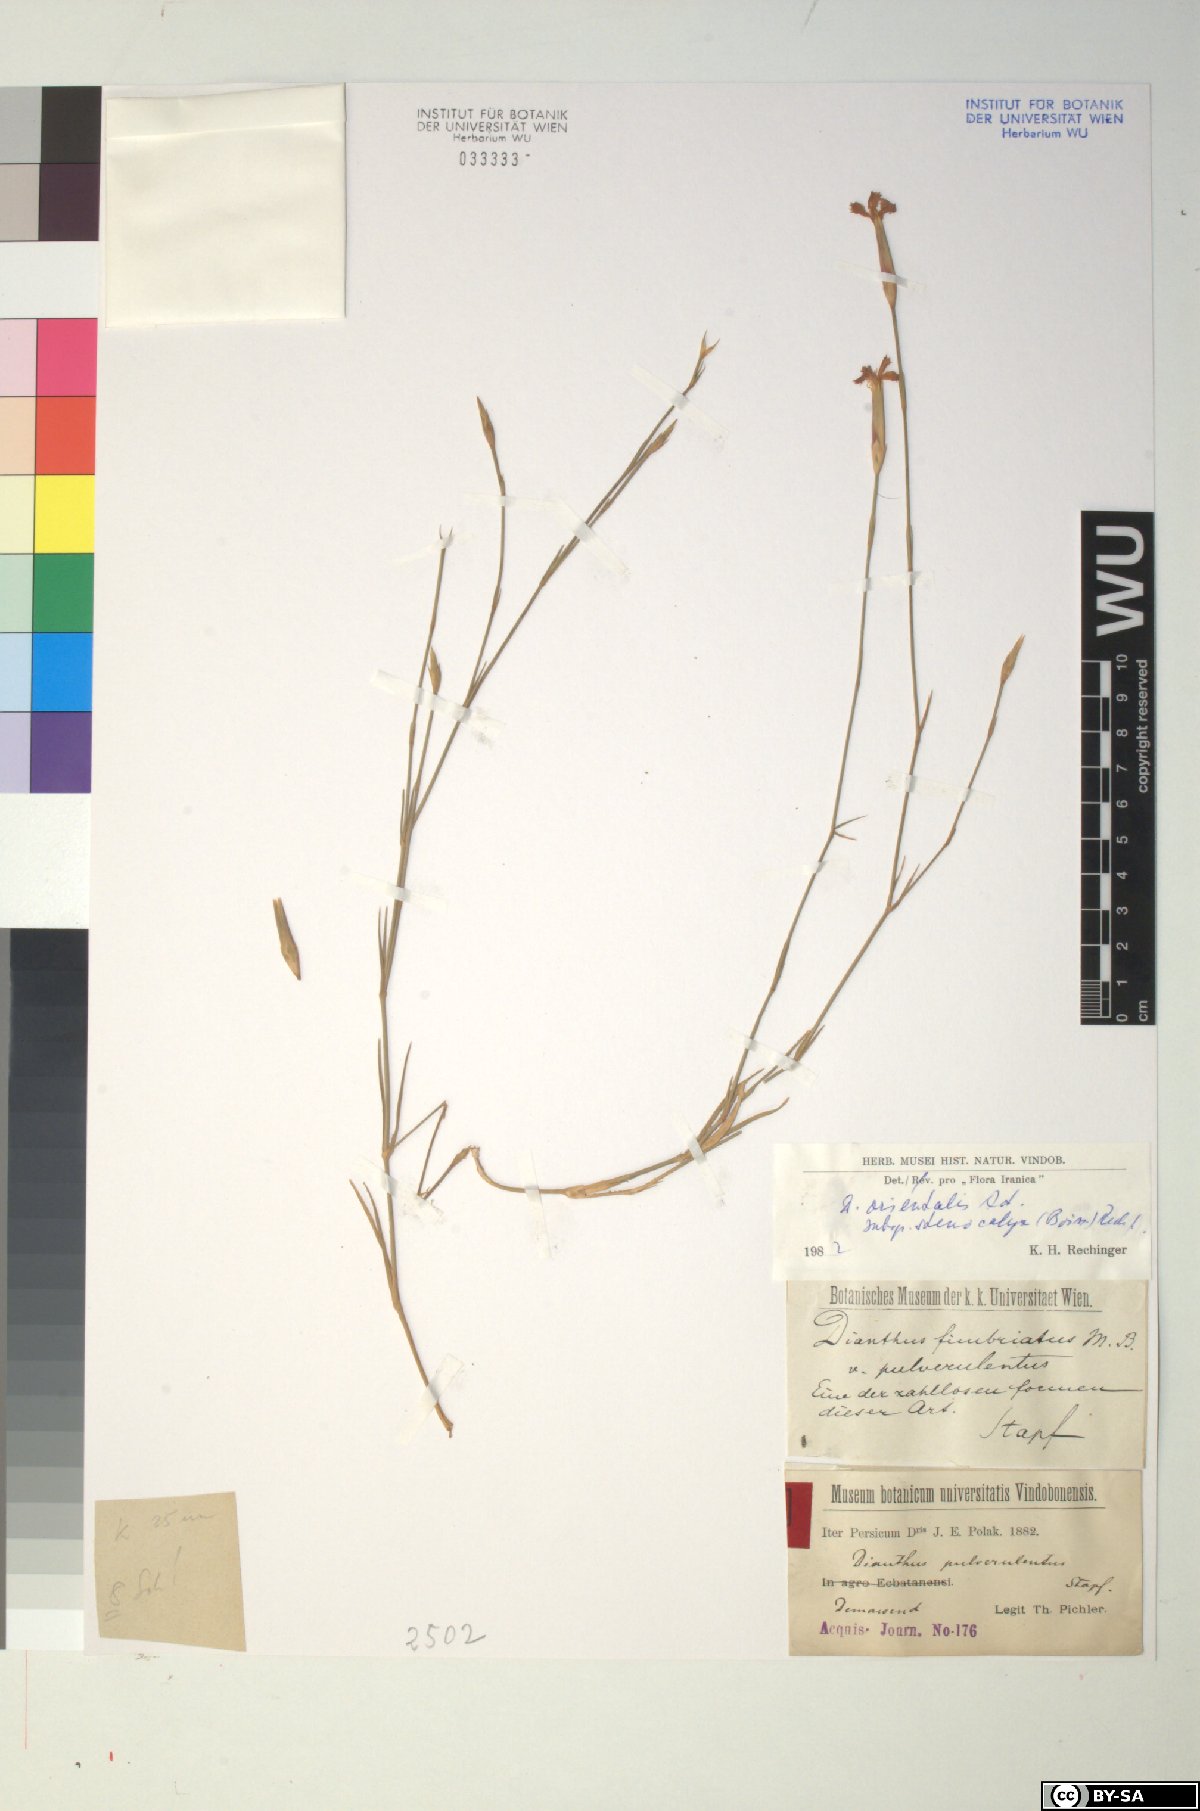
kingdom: Plantae
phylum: Tracheophyta
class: Magnoliopsida
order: Caryophyllales
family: Caryophyllaceae
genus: Dianthus
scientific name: Dianthus orientalis
